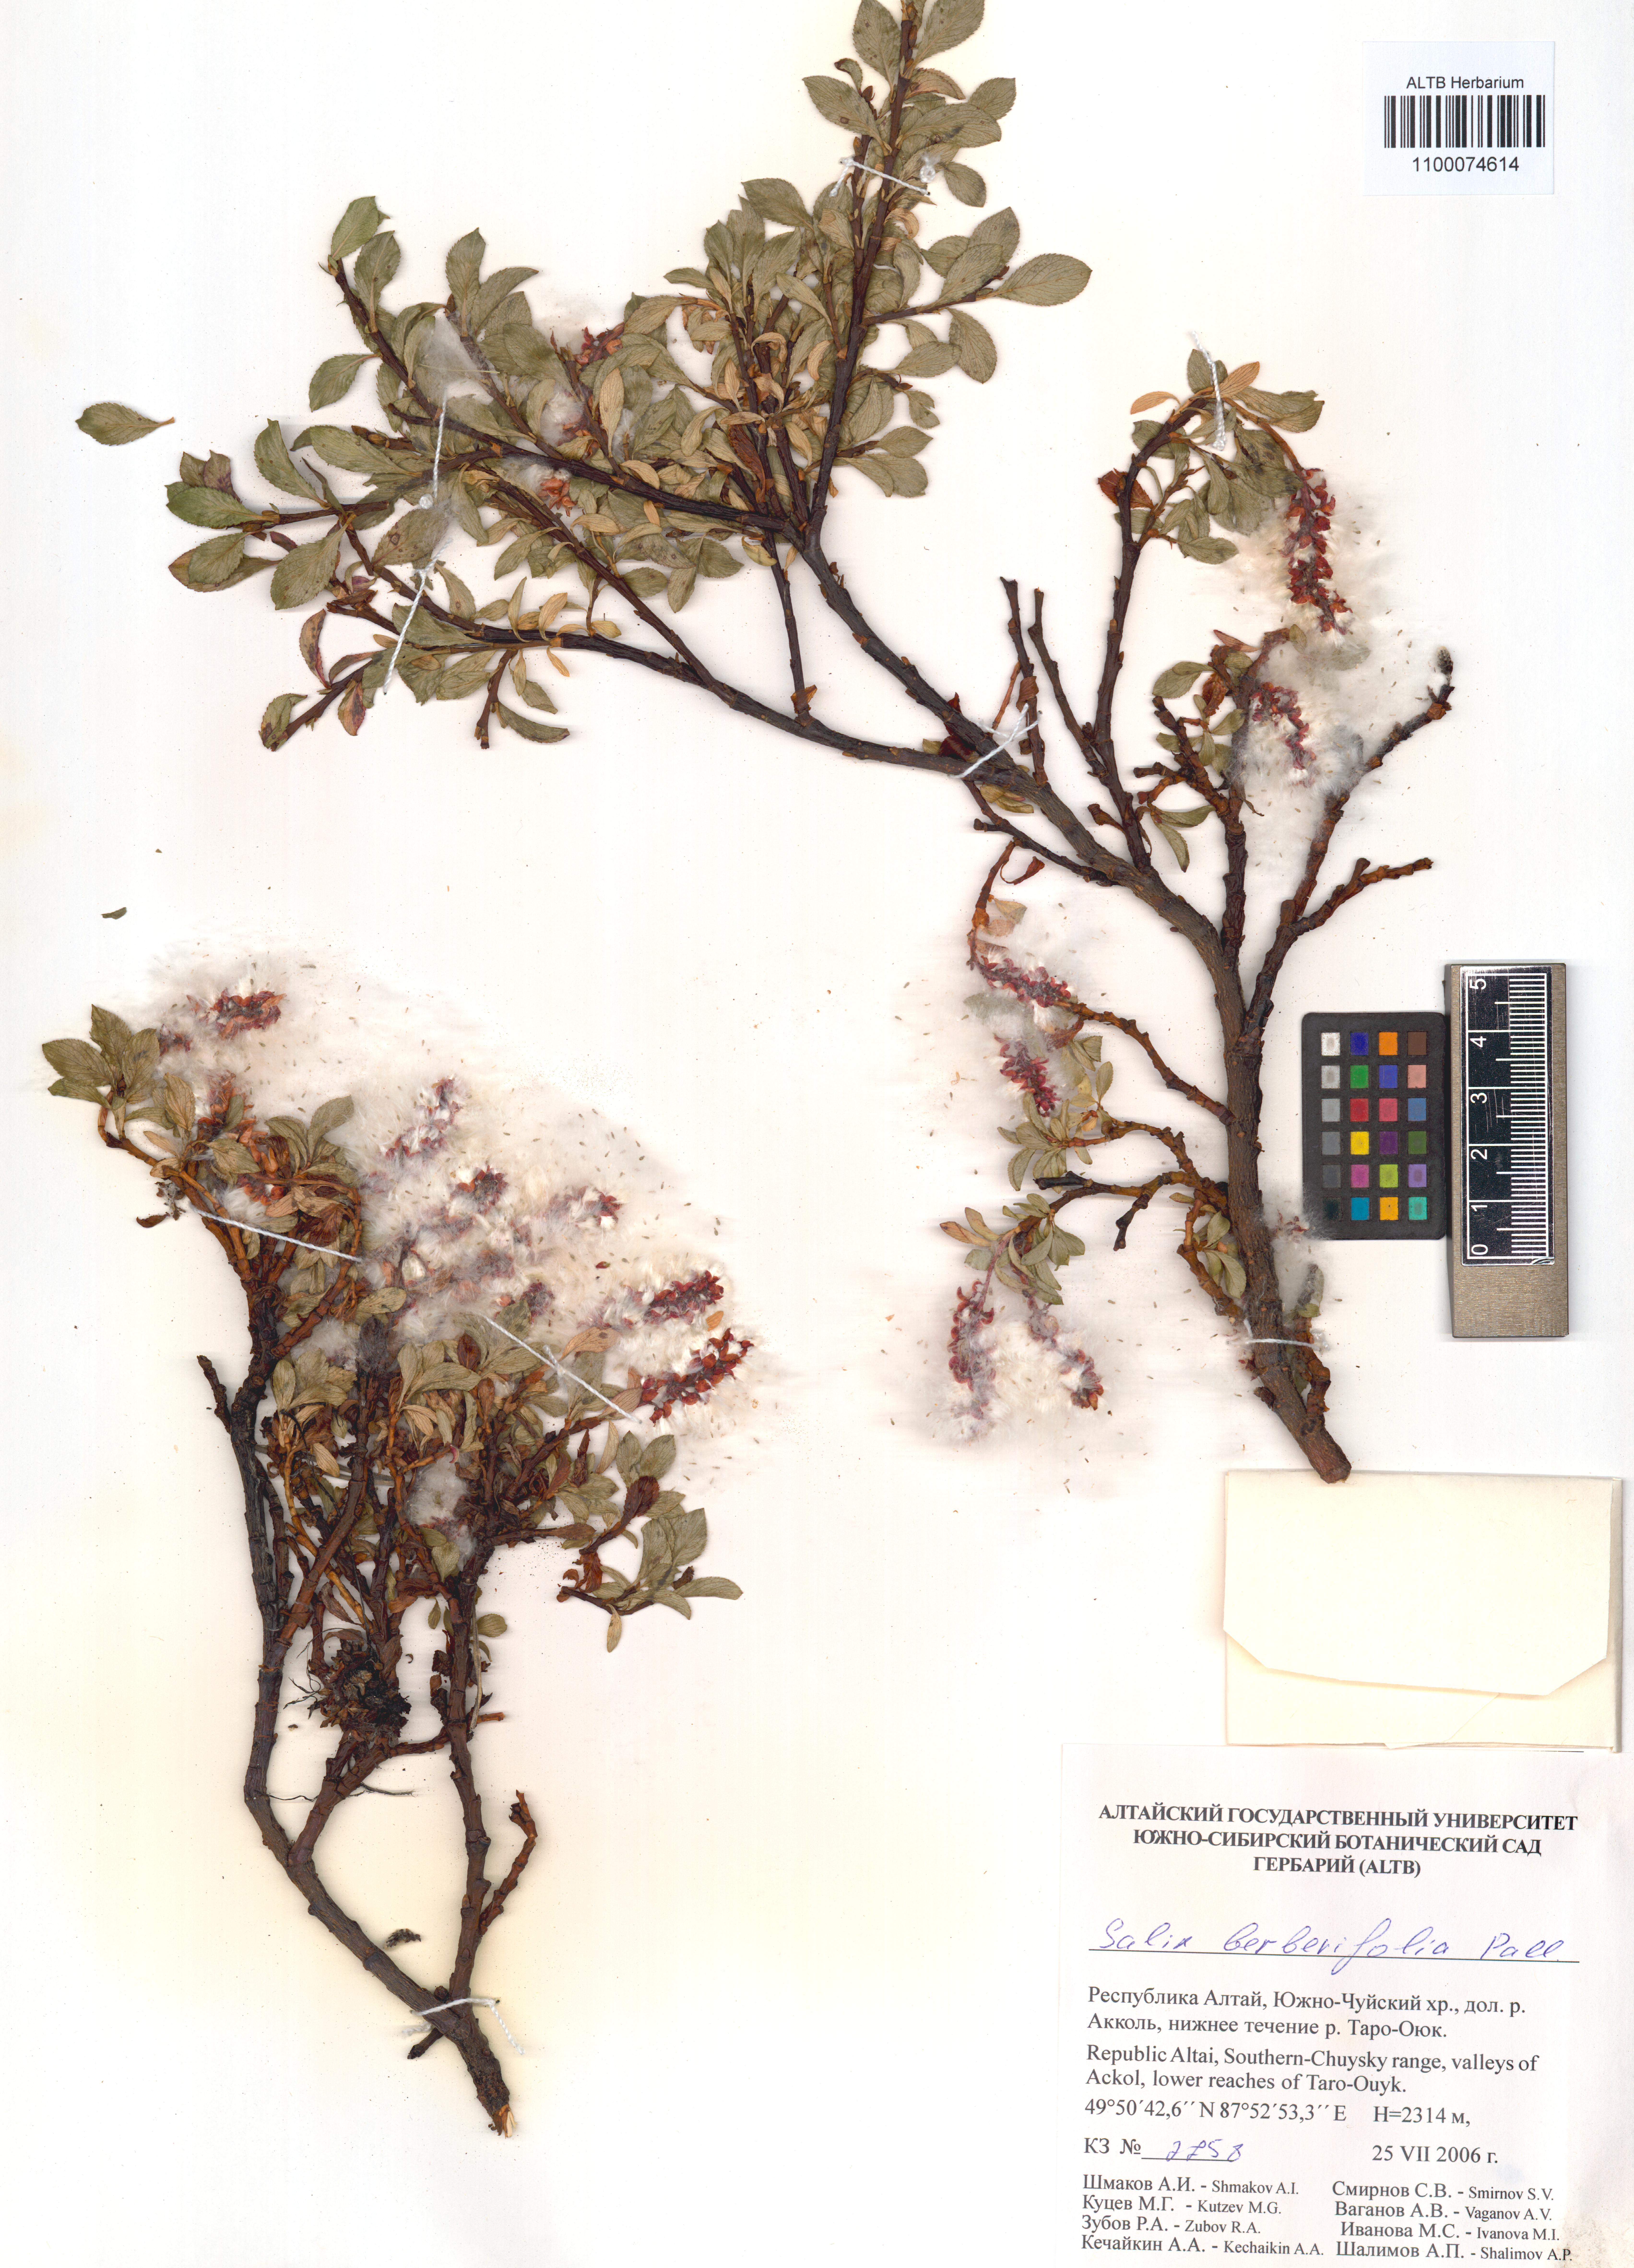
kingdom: Plantae
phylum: Tracheophyta
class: Magnoliopsida
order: Malpighiales
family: Salicaceae
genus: Salix
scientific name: Salix berberifolia
